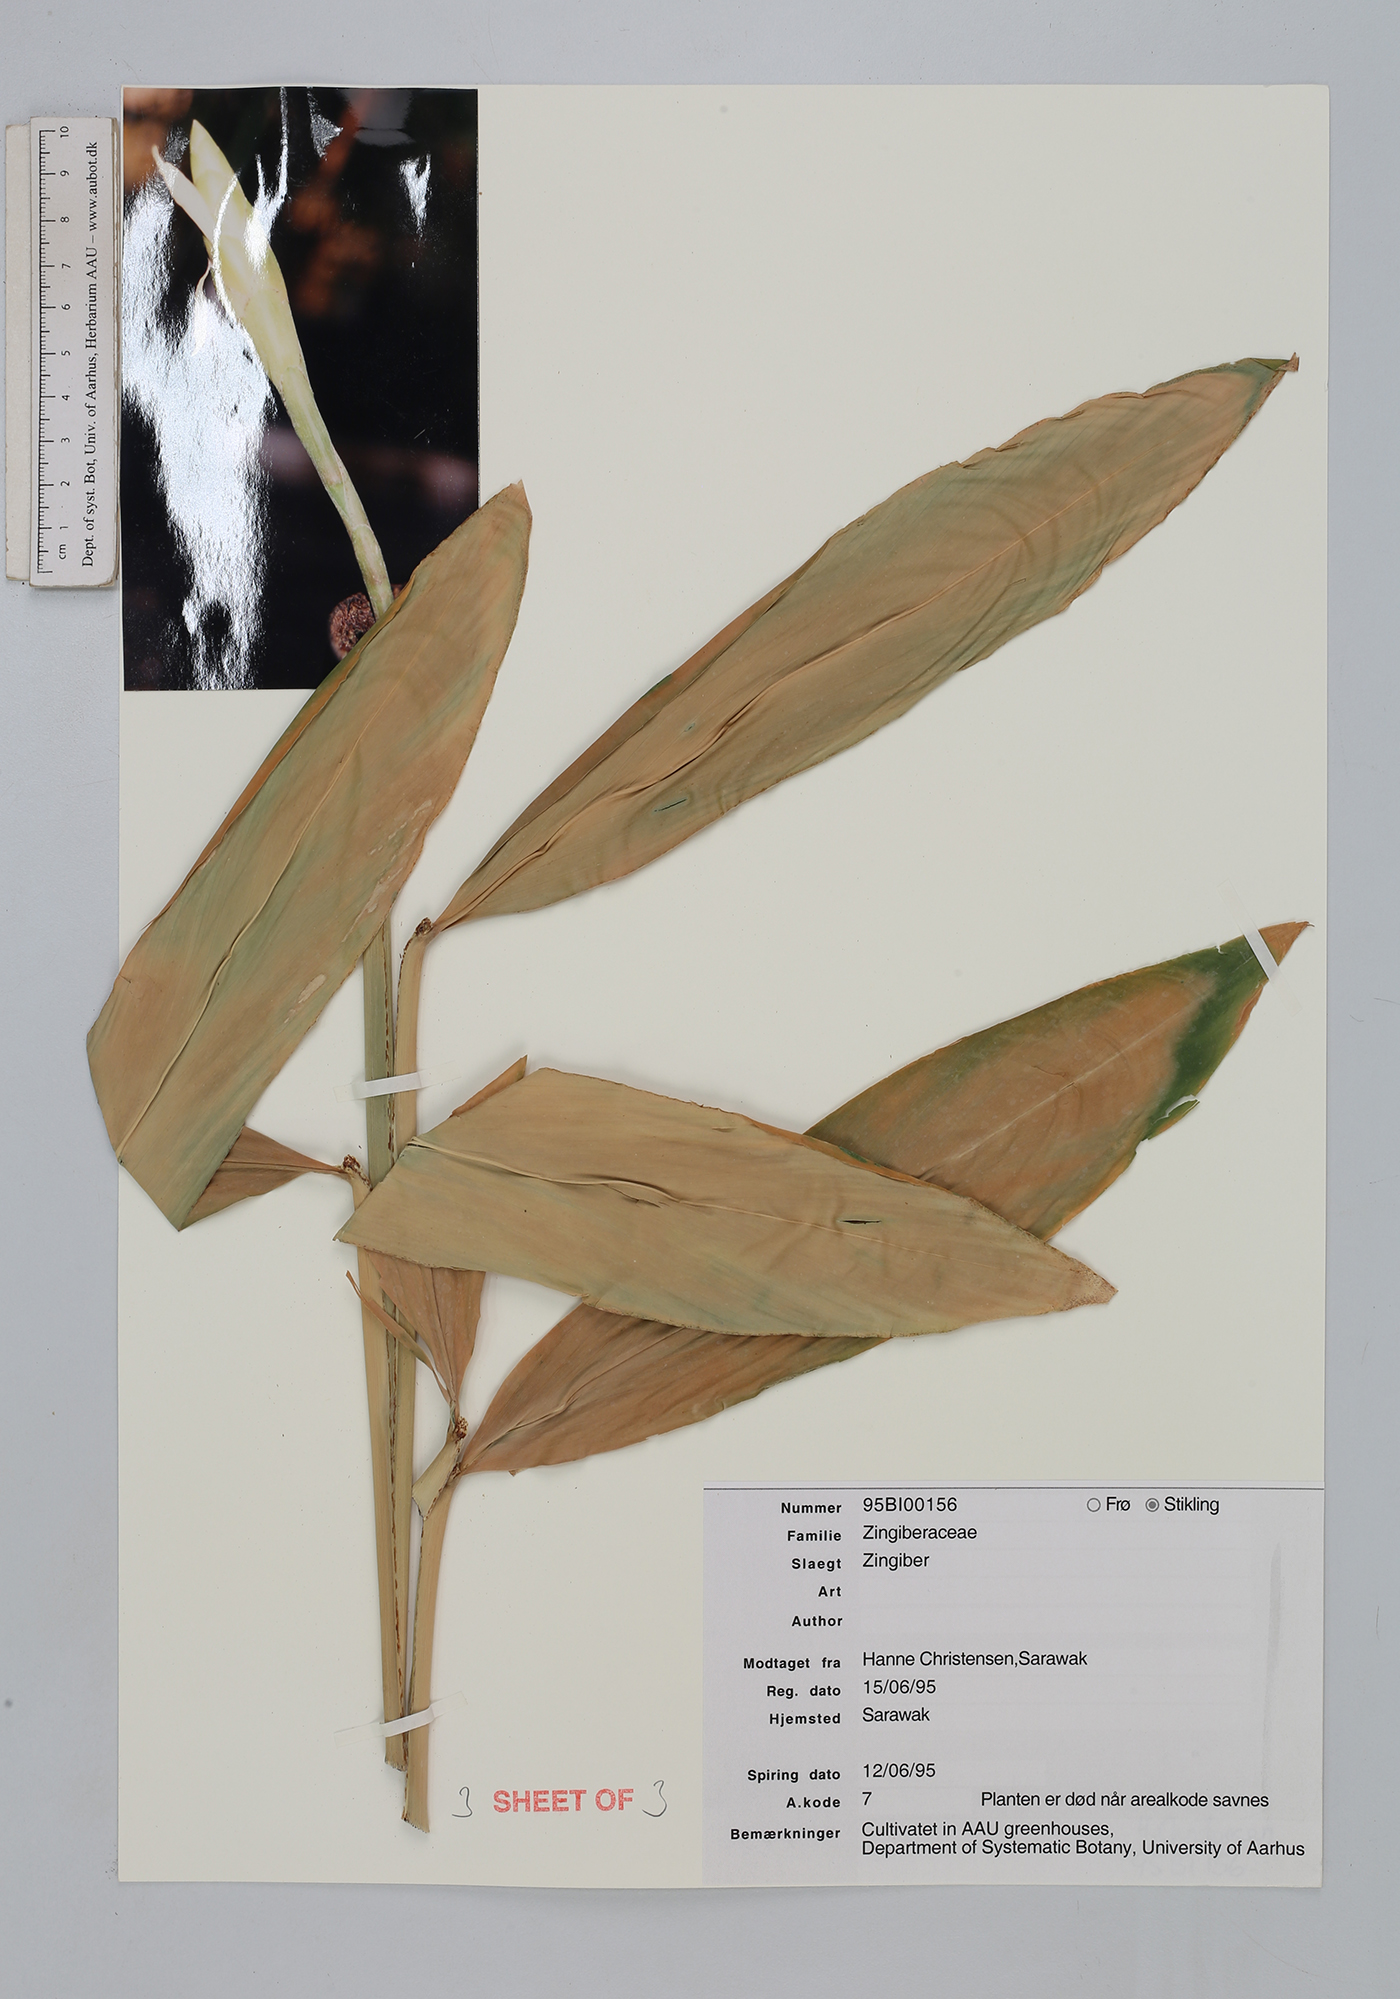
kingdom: Plantae
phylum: Tracheophyta
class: Liliopsida
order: Zingiberales
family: Zingiberaceae
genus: Zingiber
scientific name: Zingiber
